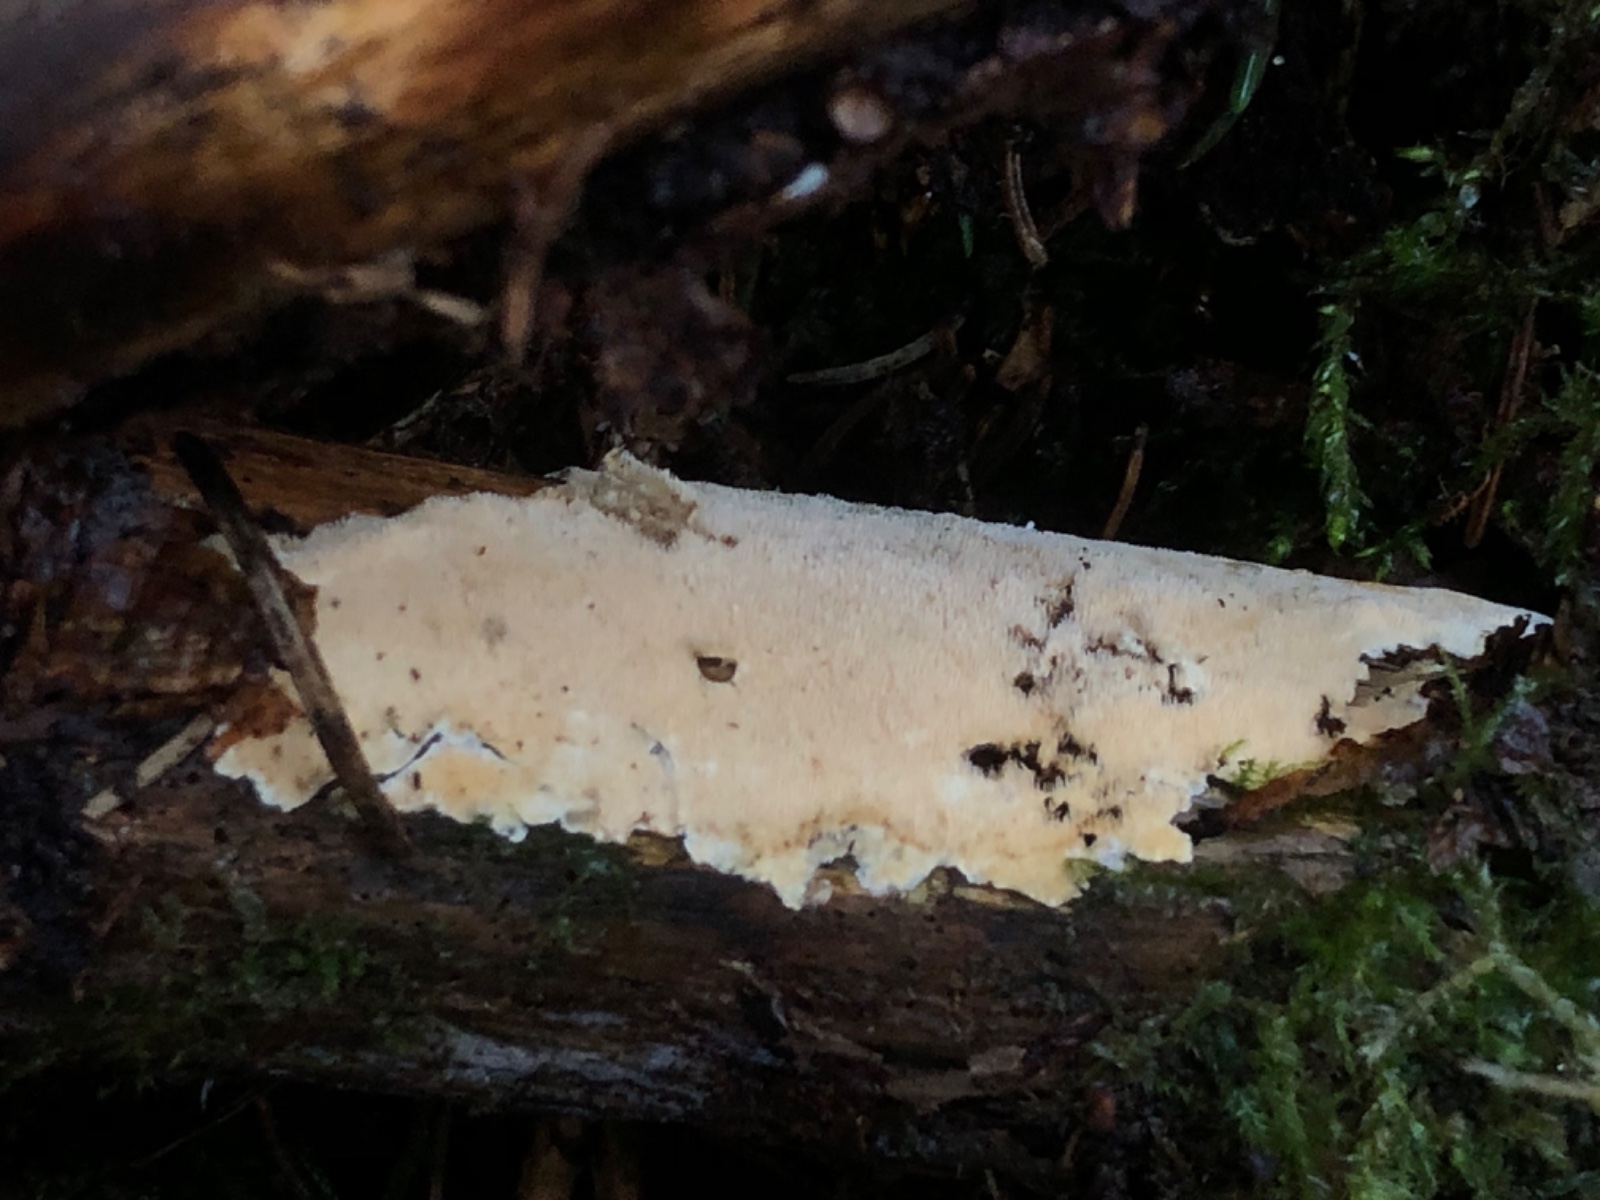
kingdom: Fungi
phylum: Basidiomycota
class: Agaricomycetes
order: Corticiales
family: Corticiaceae
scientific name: Corticiaceae
